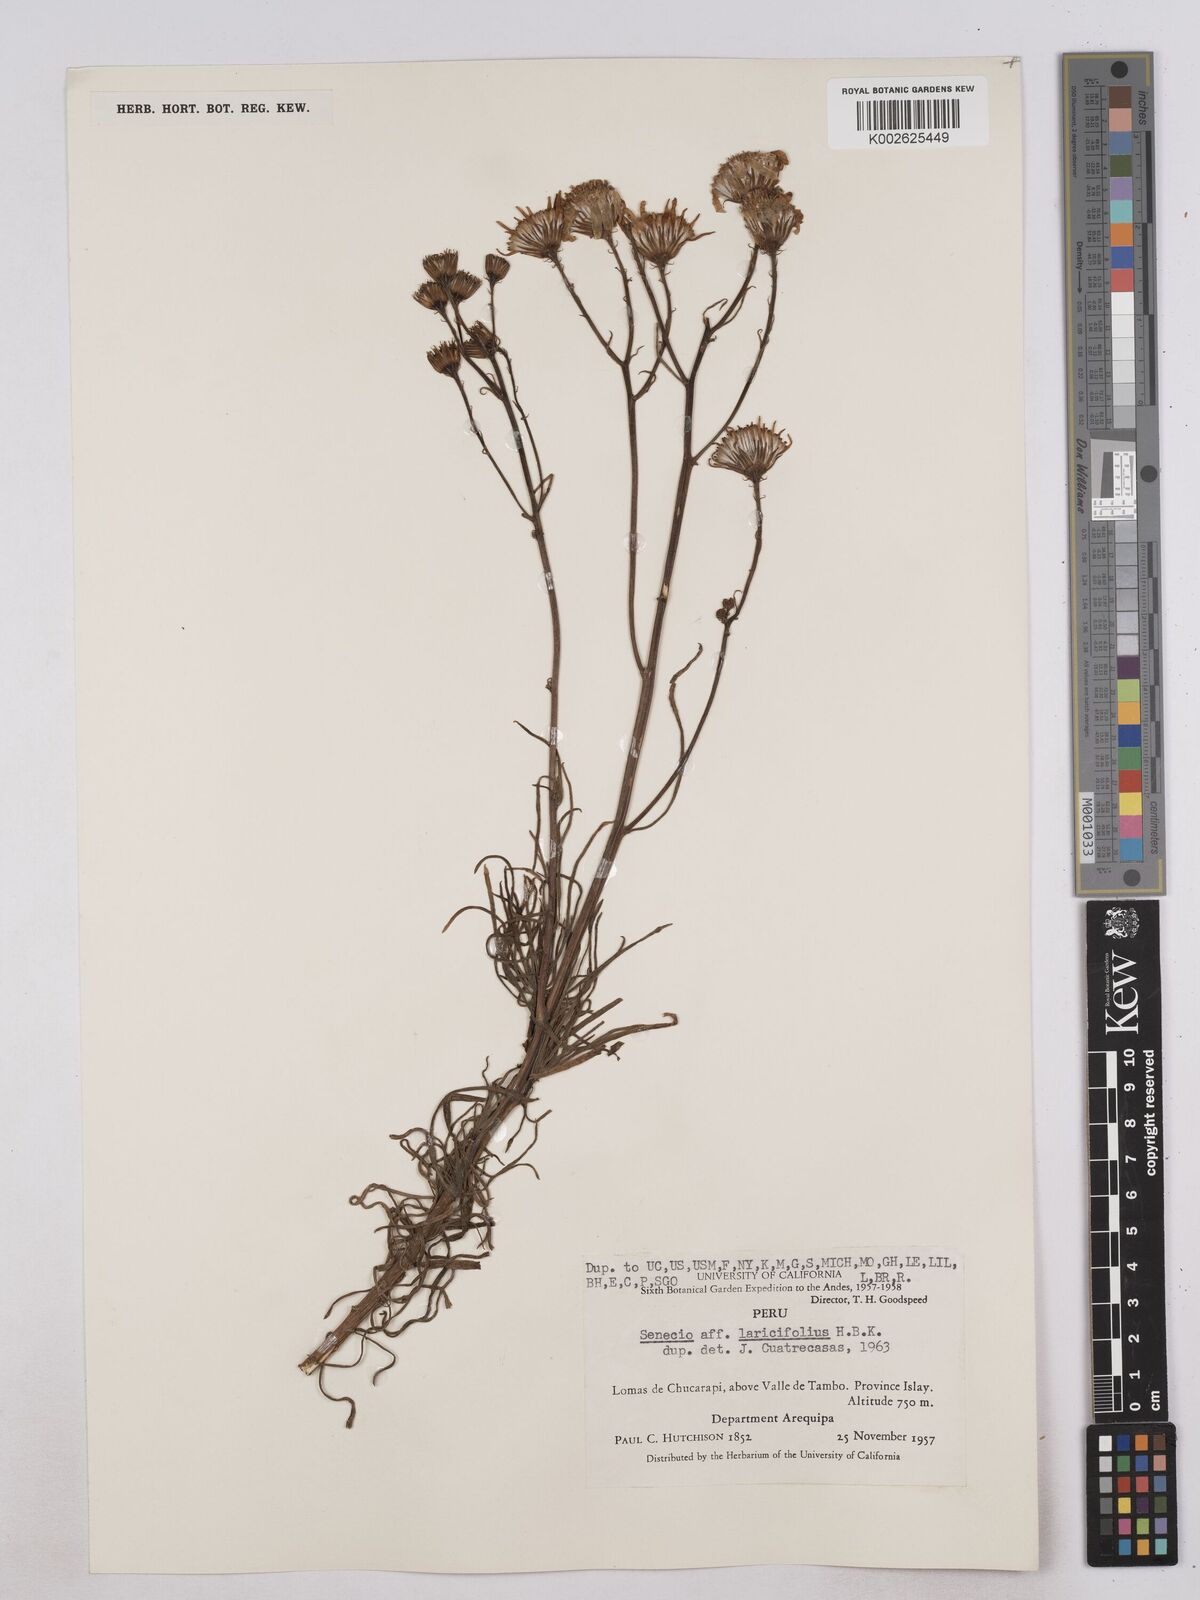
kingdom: Plantae
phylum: Tracheophyta
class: Magnoliopsida
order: Asterales
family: Asteraceae
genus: Senecio
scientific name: Senecio laricifolius
